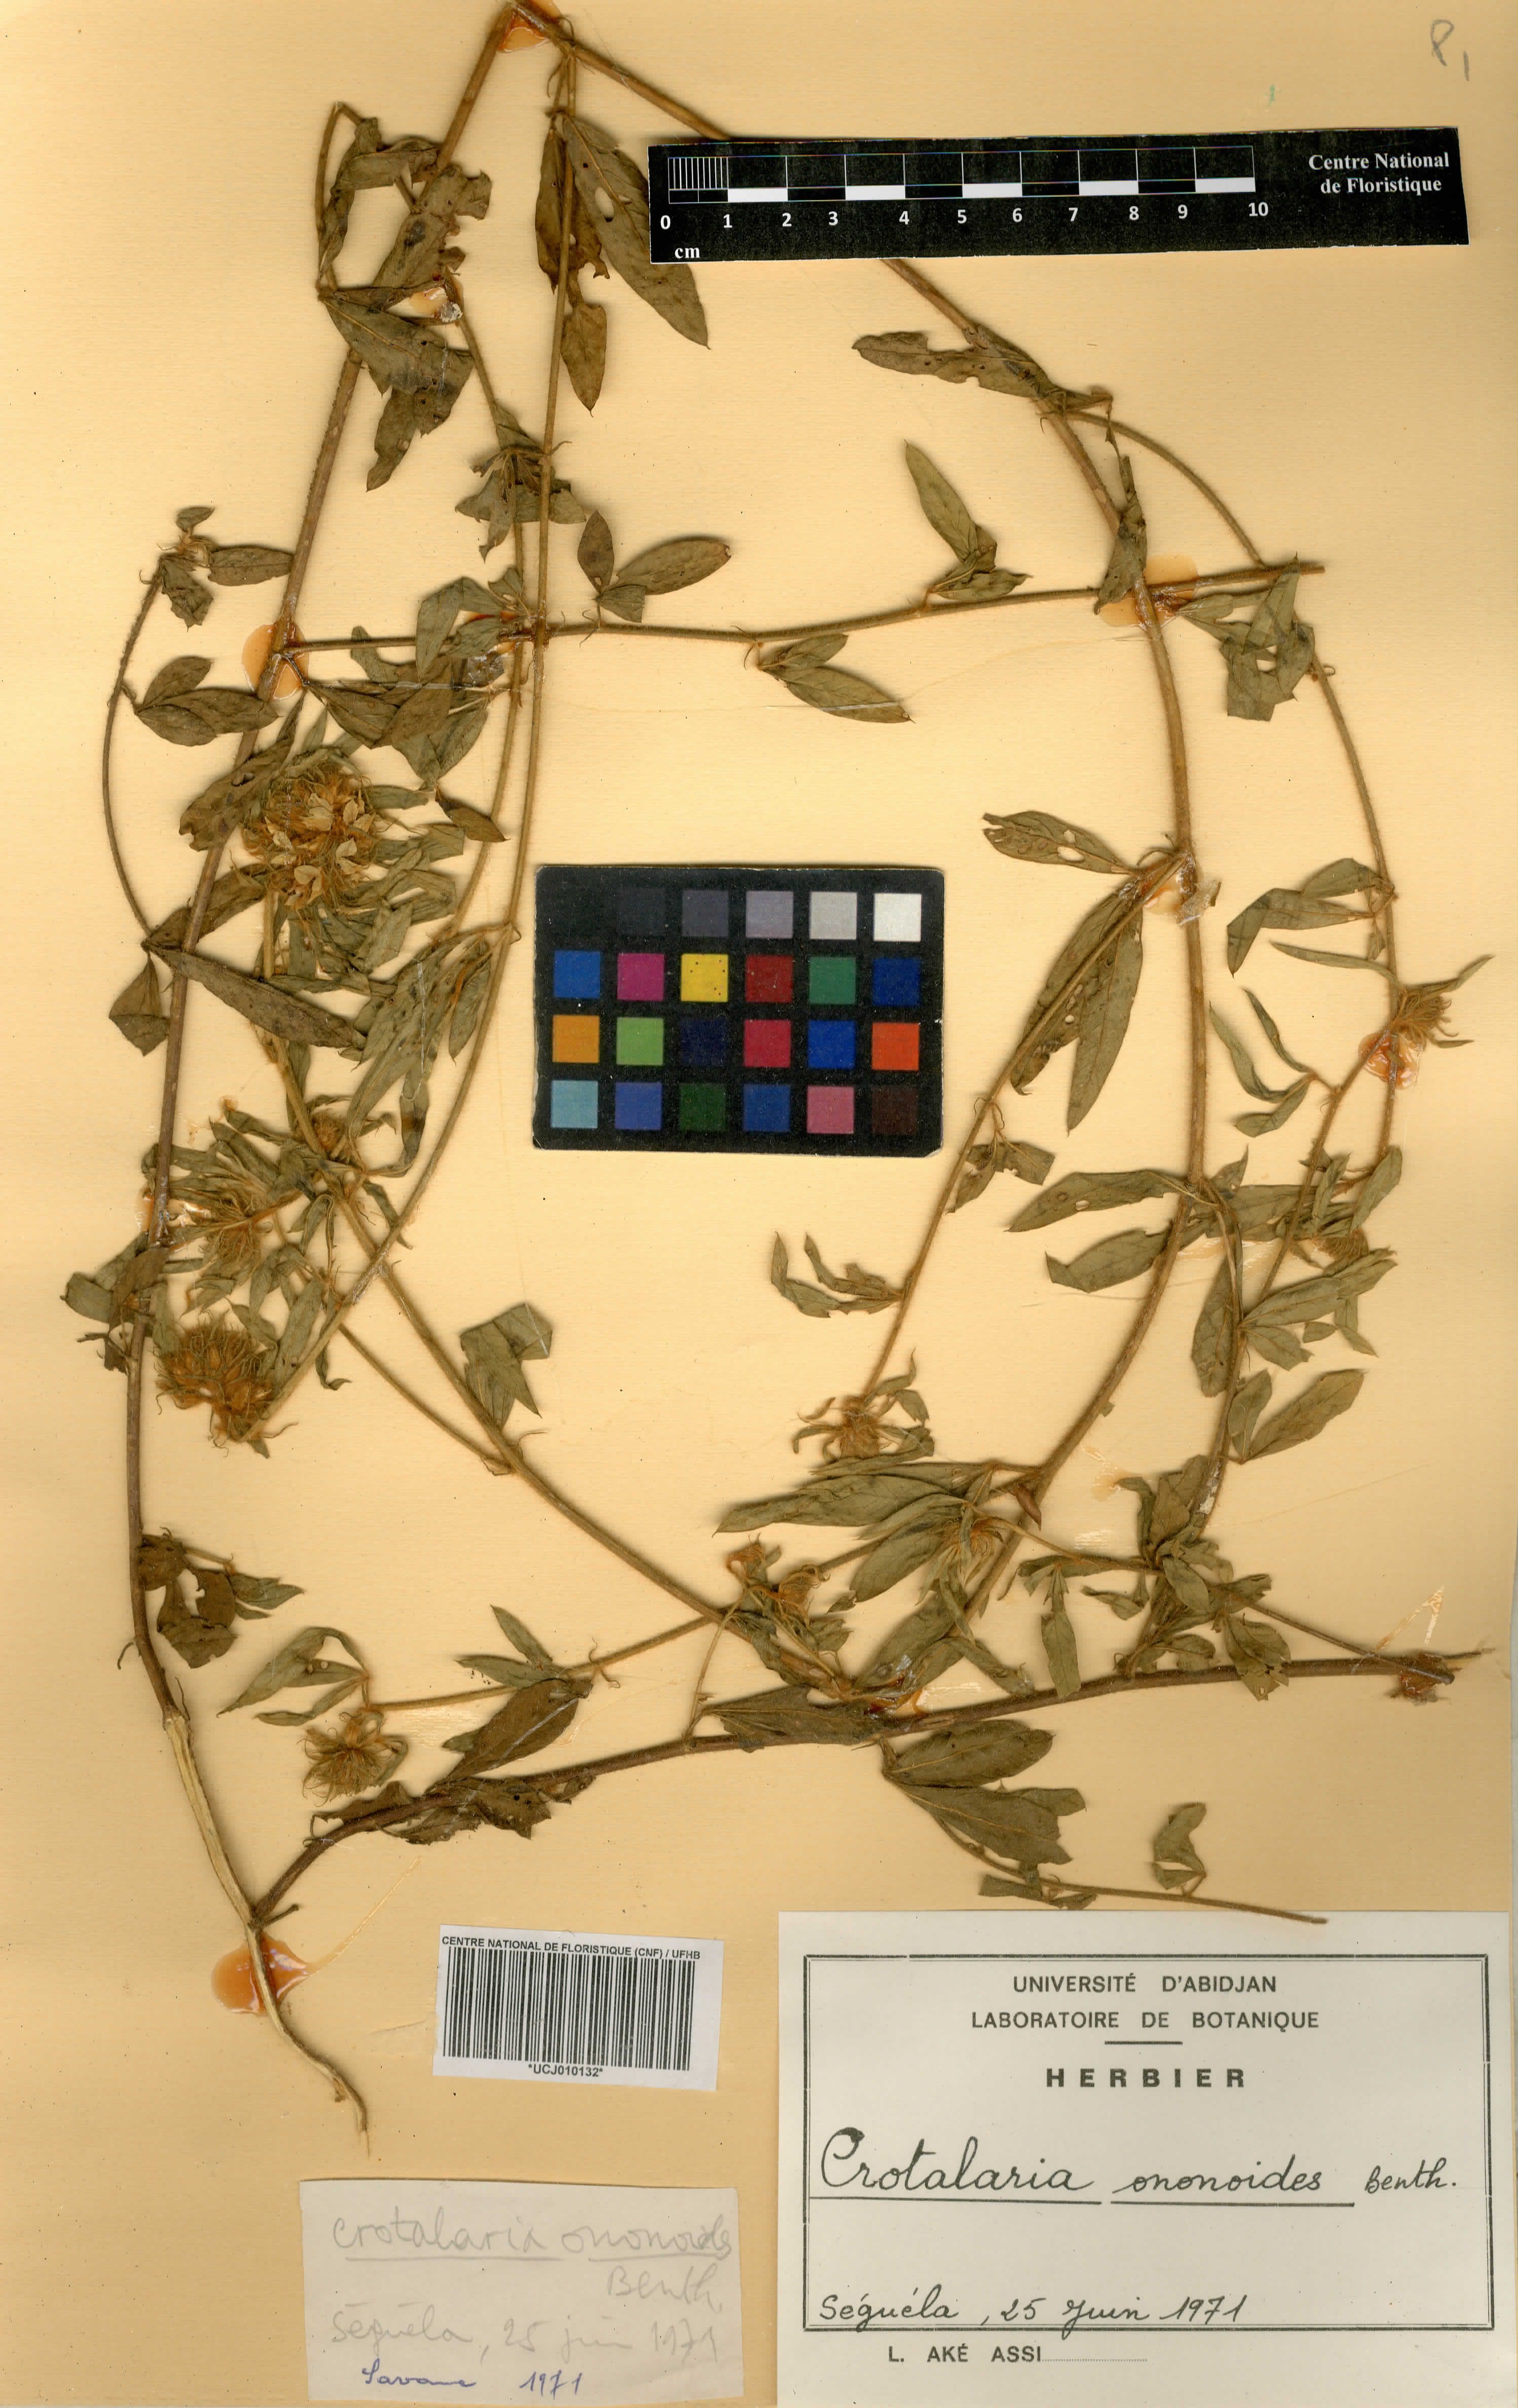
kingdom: Plantae
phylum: Tracheophyta
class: Magnoliopsida
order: Fabales
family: Fabaceae
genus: Crotalaria
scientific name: Crotalaria ononoides
